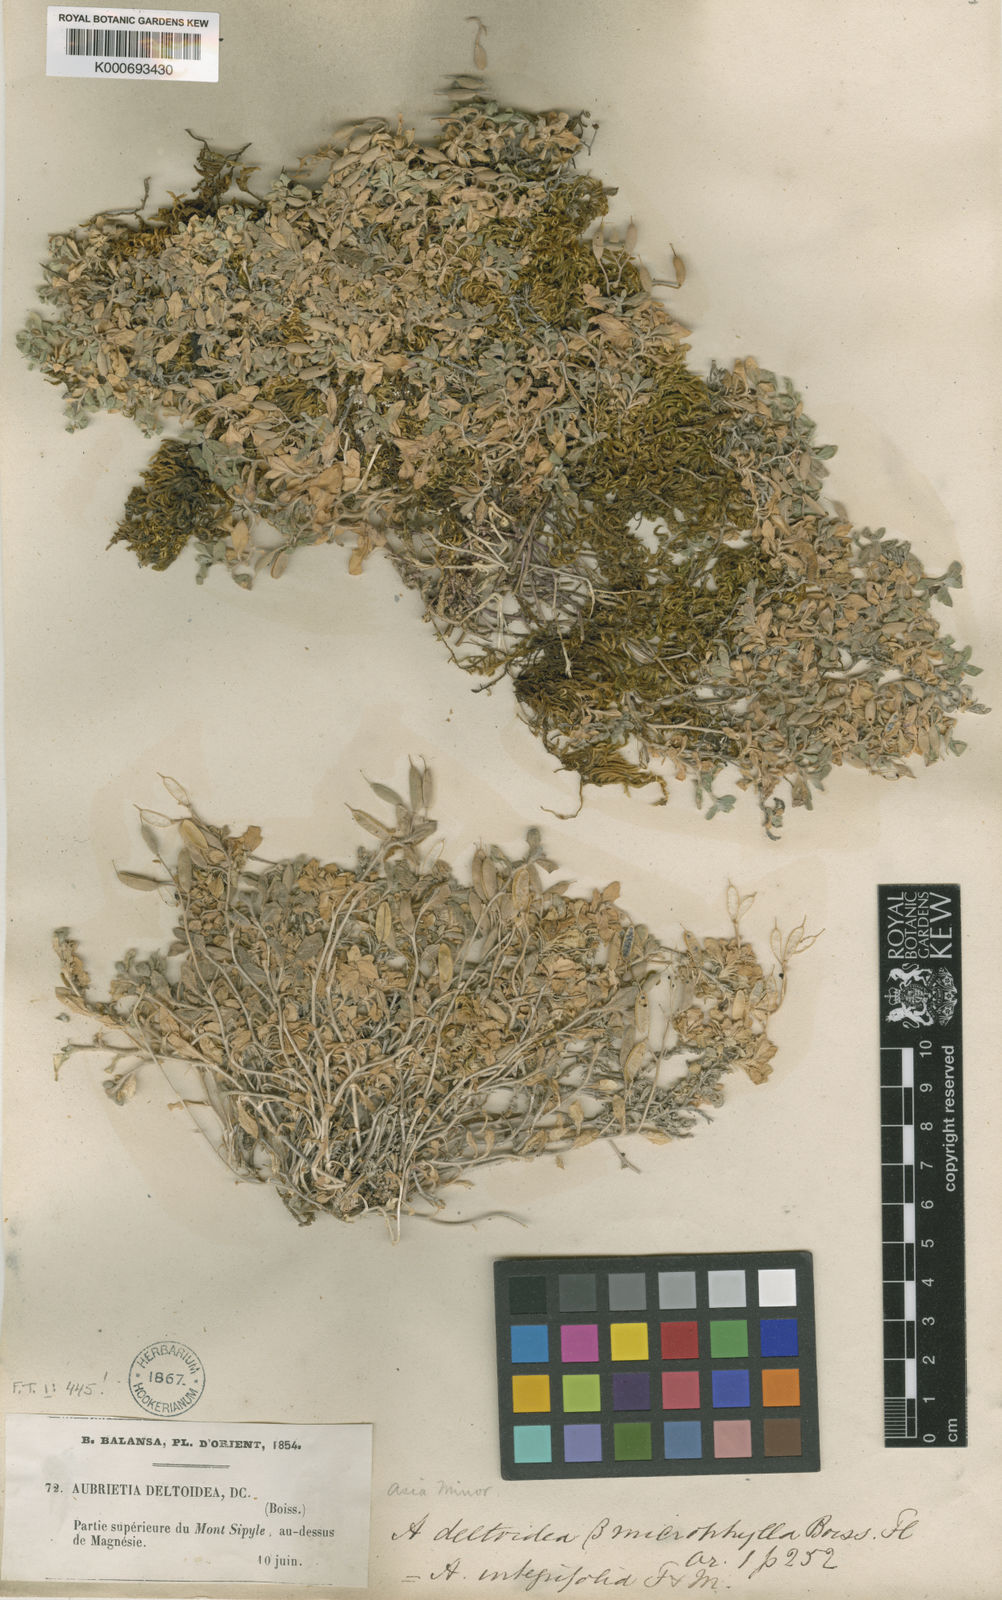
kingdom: Plantae
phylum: Tracheophyta
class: Magnoliopsida
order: Brassicales
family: Brassicaceae
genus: Aubrieta
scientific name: Aubrieta deltoidea
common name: Aubretia
